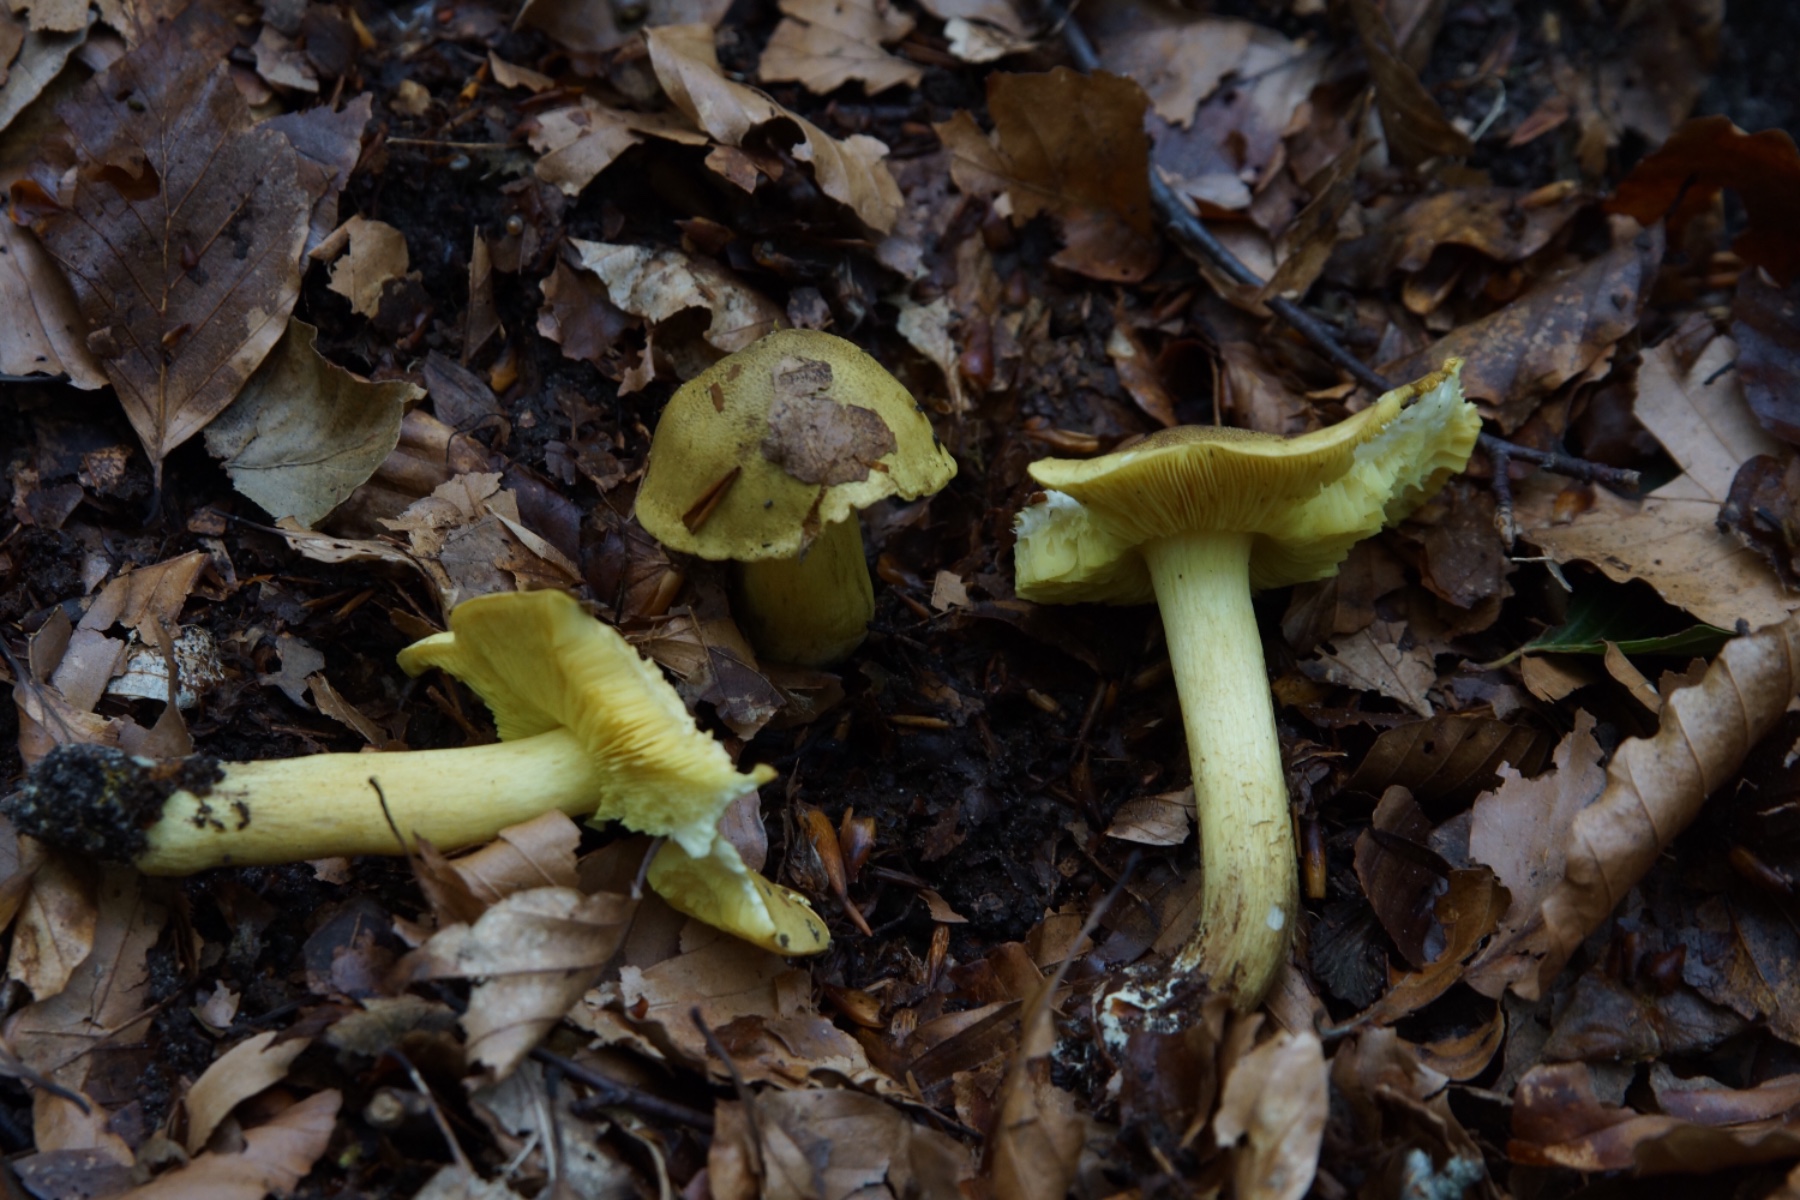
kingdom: Fungi
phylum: Basidiomycota
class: Agaricomycetes
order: Agaricales
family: Tricholomataceae
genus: Tricholoma
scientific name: Tricholoma frondosae
